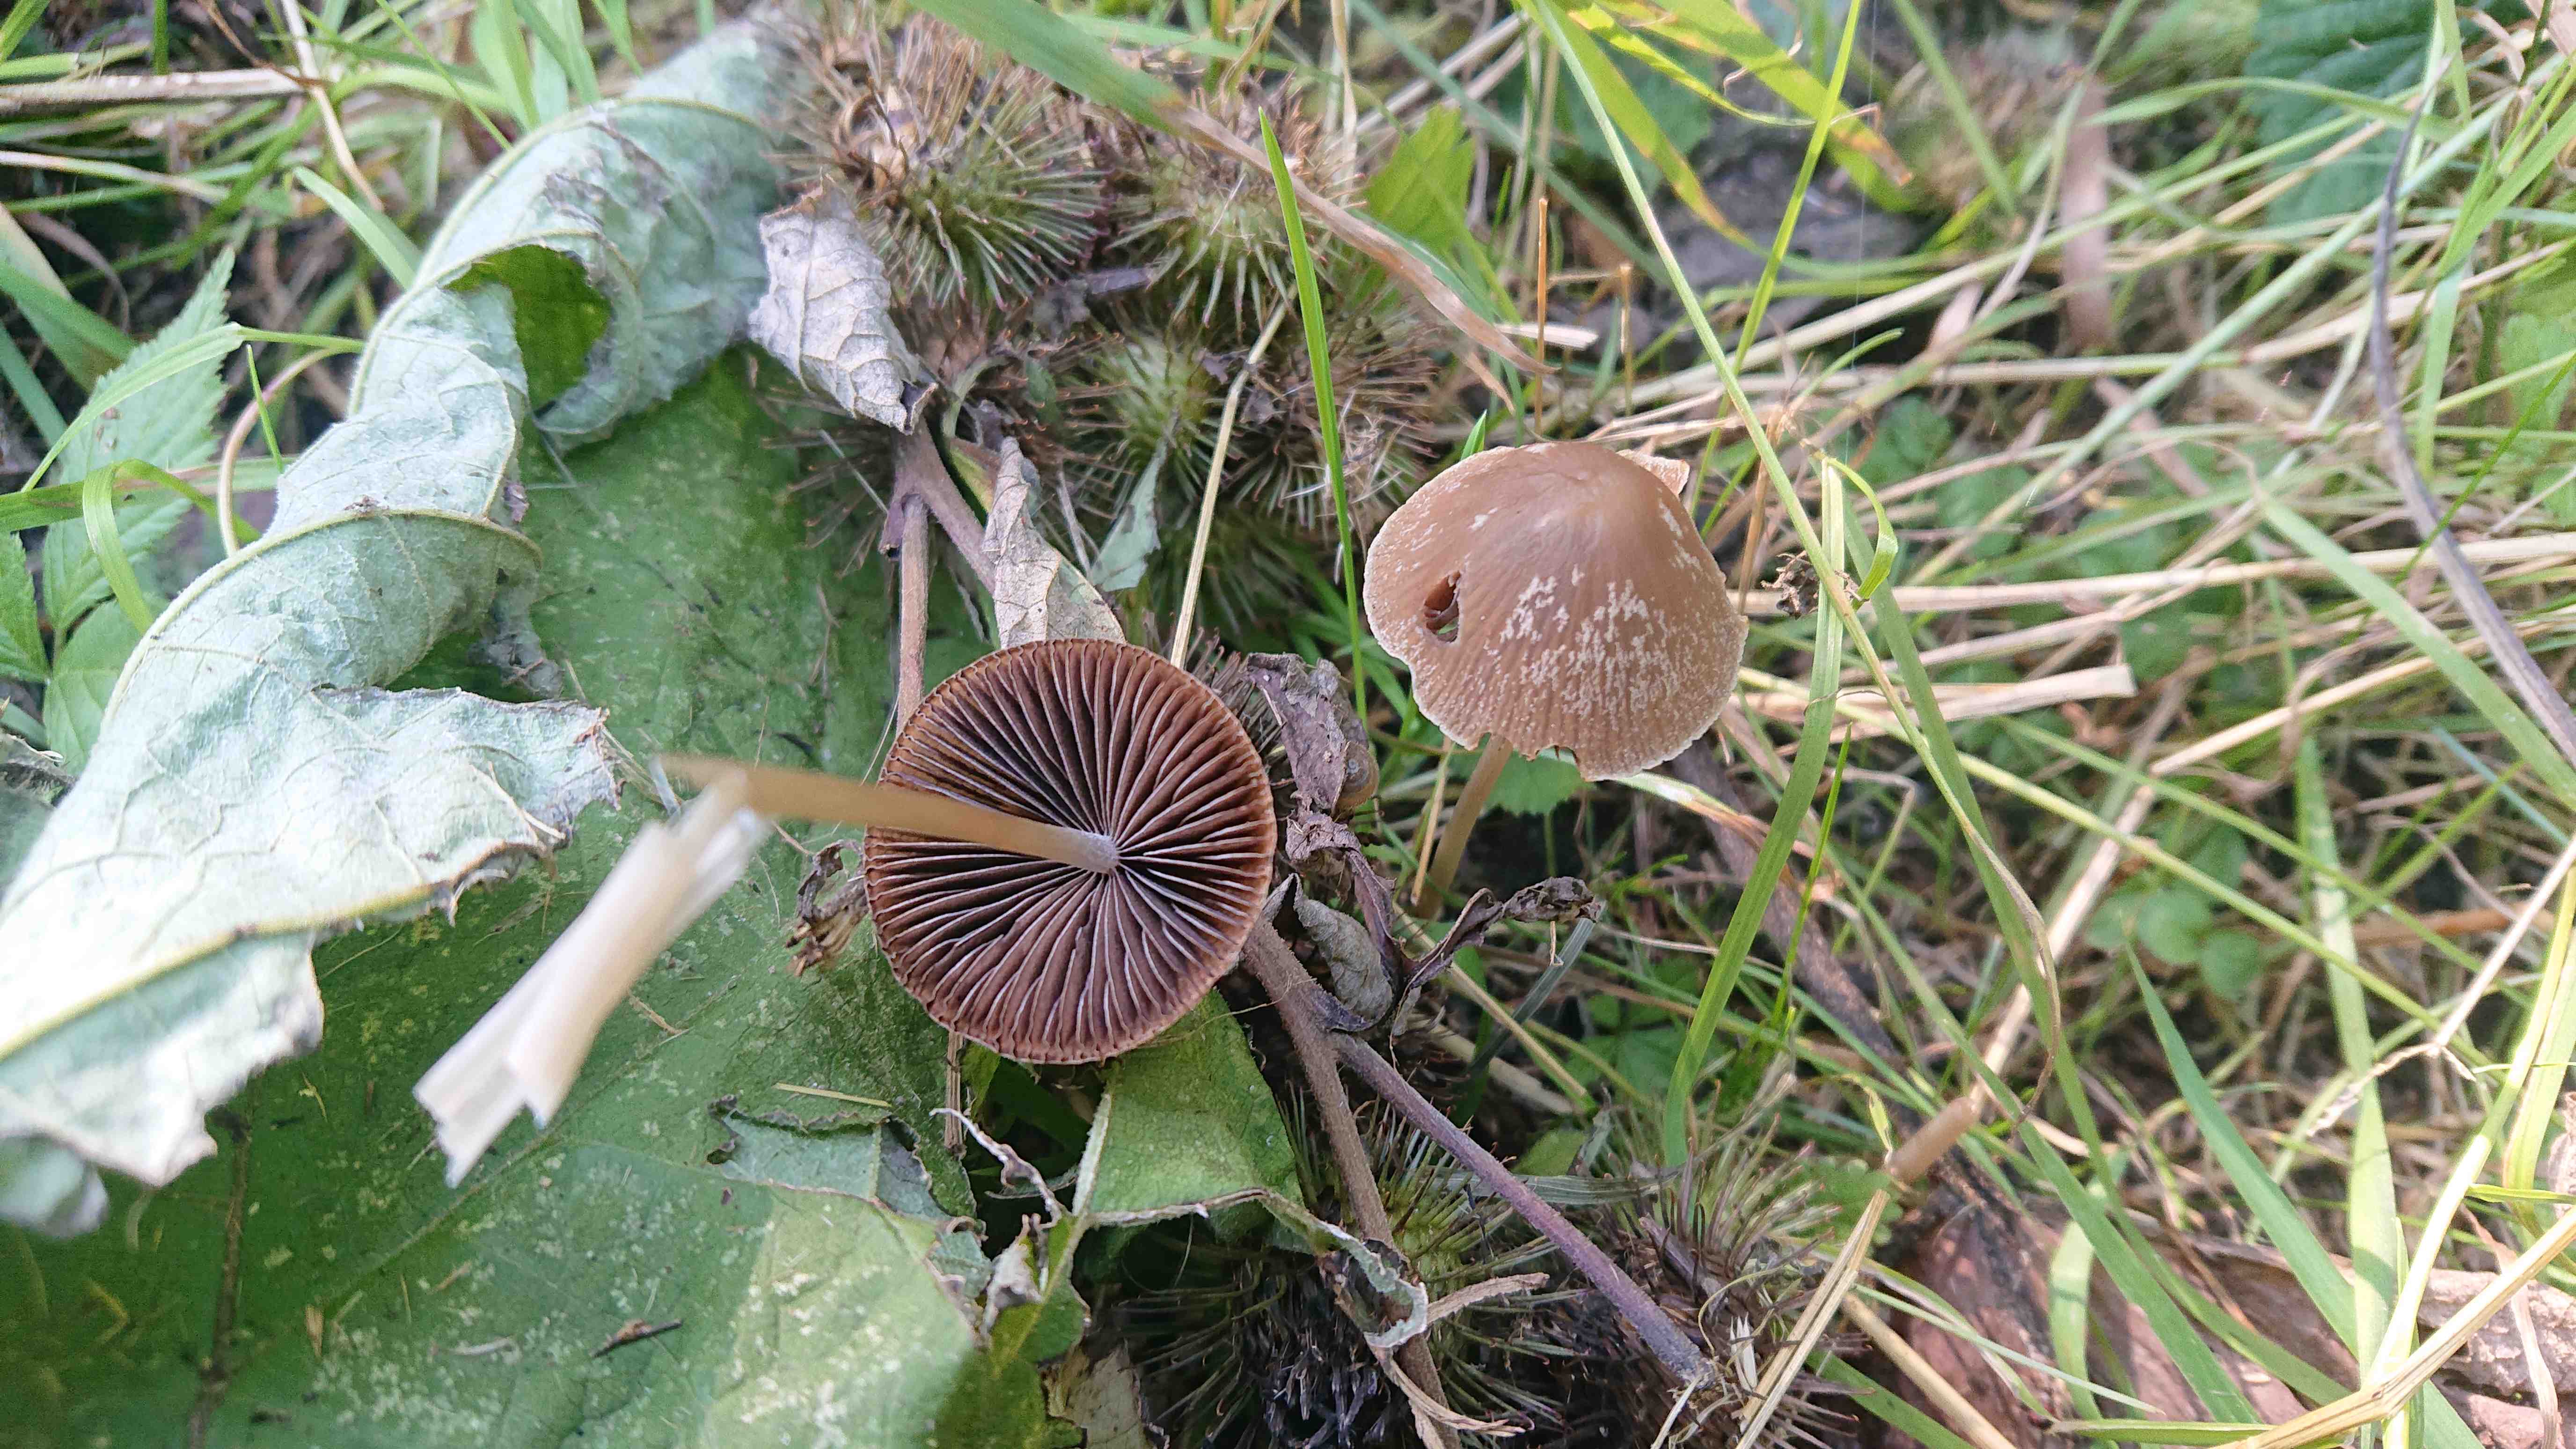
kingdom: Fungi
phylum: Basidiomycota
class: Agaricomycetes
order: Agaricales
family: Psathyrellaceae
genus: Psathyrella
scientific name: Psathyrella
